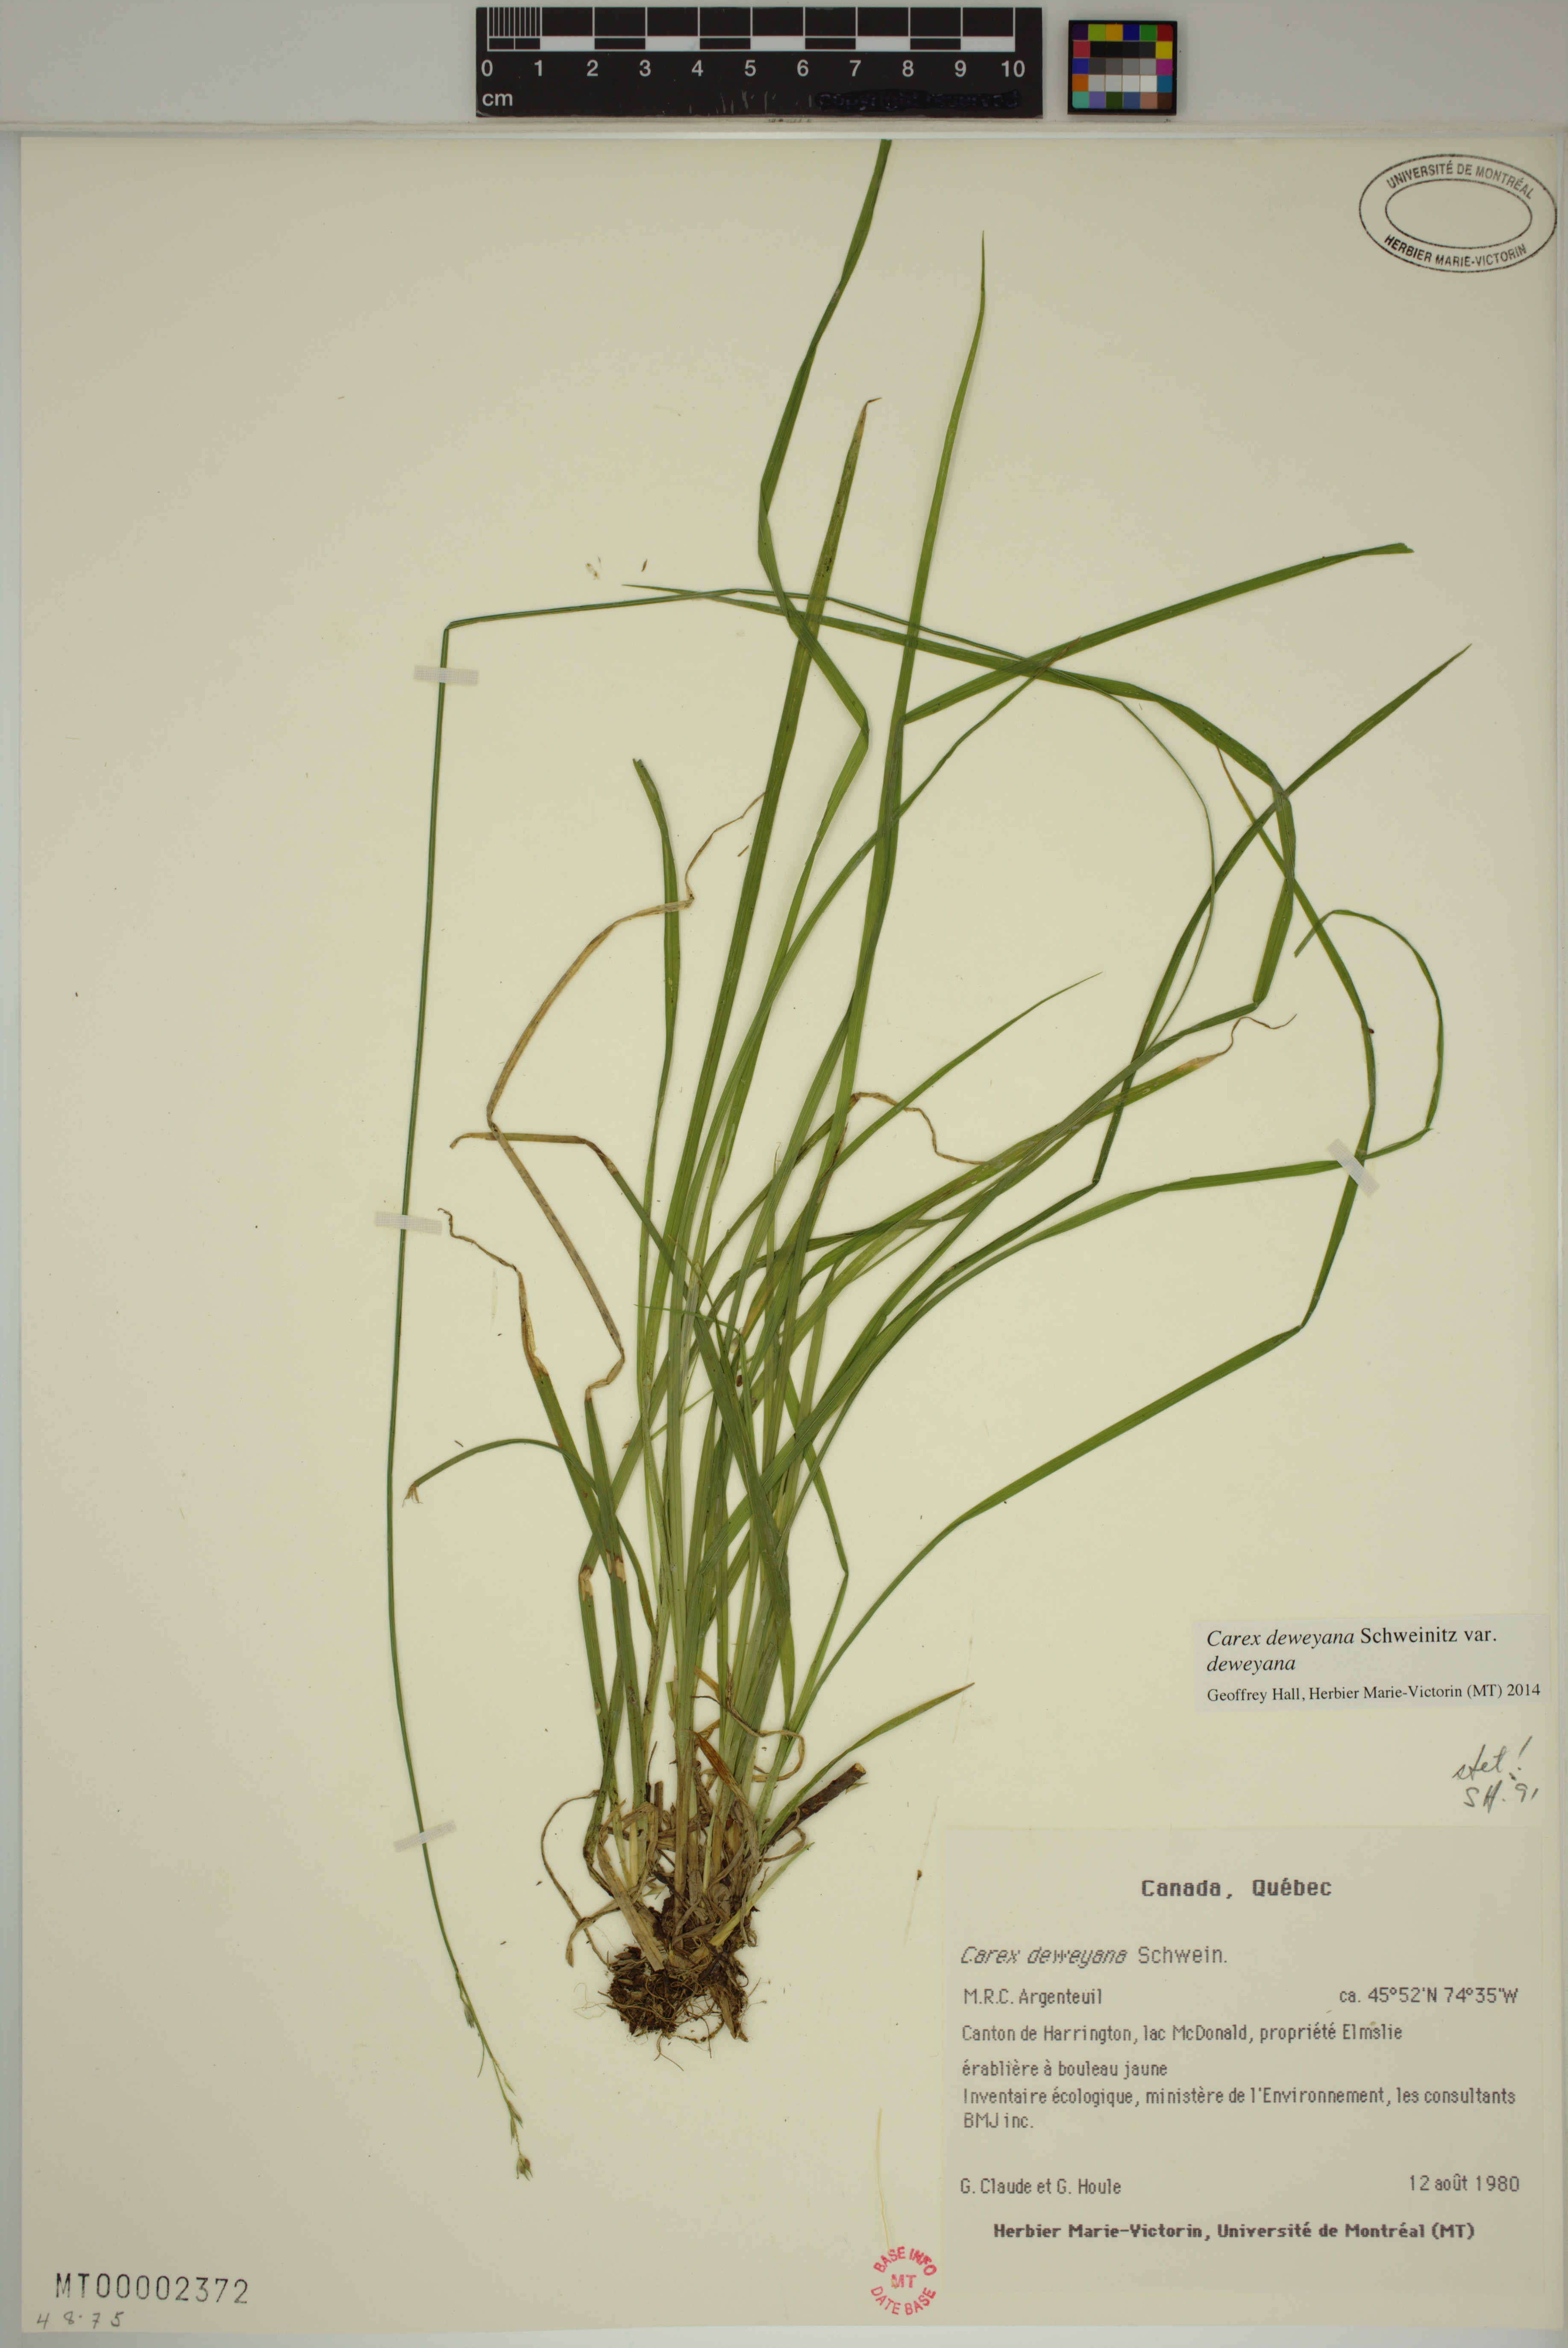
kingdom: Plantae
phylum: Tracheophyta
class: Liliopsida
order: Poales
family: Cyperaceae
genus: Carex
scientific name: Carex deweyana
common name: Dewey's sedge
